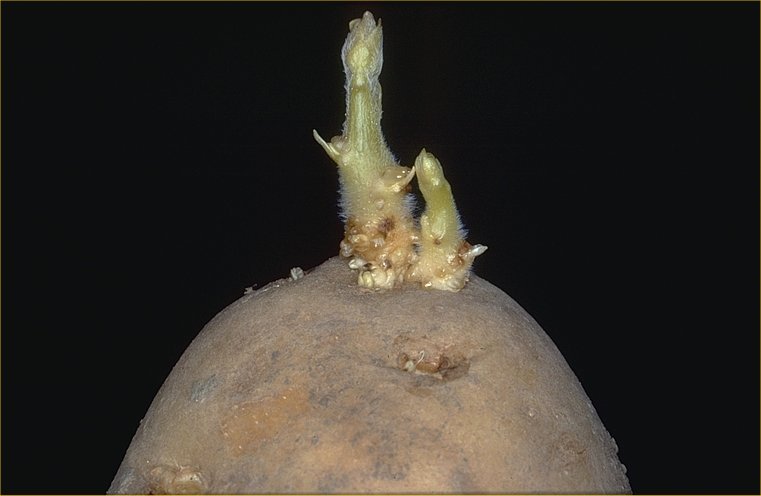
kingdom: Plantae
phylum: Tracheophyta
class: Magnoliopsida
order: Solanales
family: Solanaceae
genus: Solanum
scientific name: Solanum tuberosum
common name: Potato
